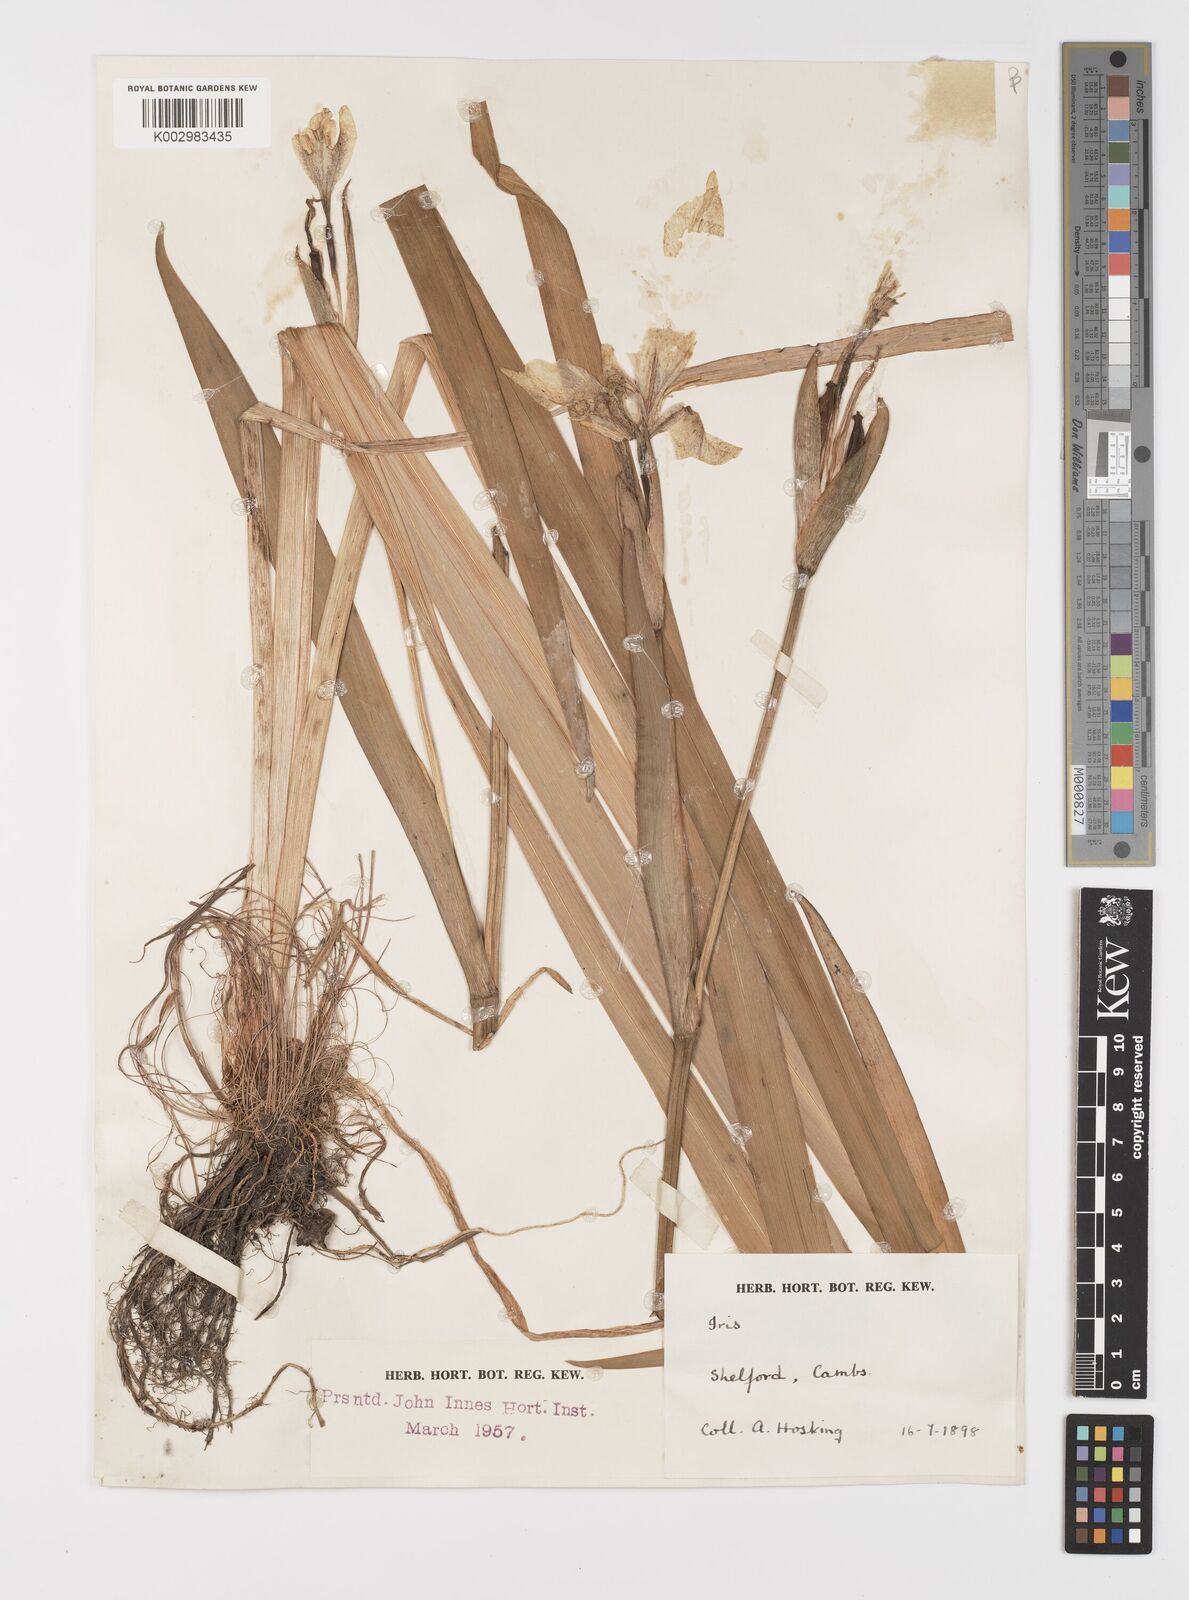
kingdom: Plantae
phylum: Tracheophyta
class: Liliopsida
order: Asparagales
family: Iridaceae
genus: Iris
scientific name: Iris pseudacorus
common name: Yellow flag
